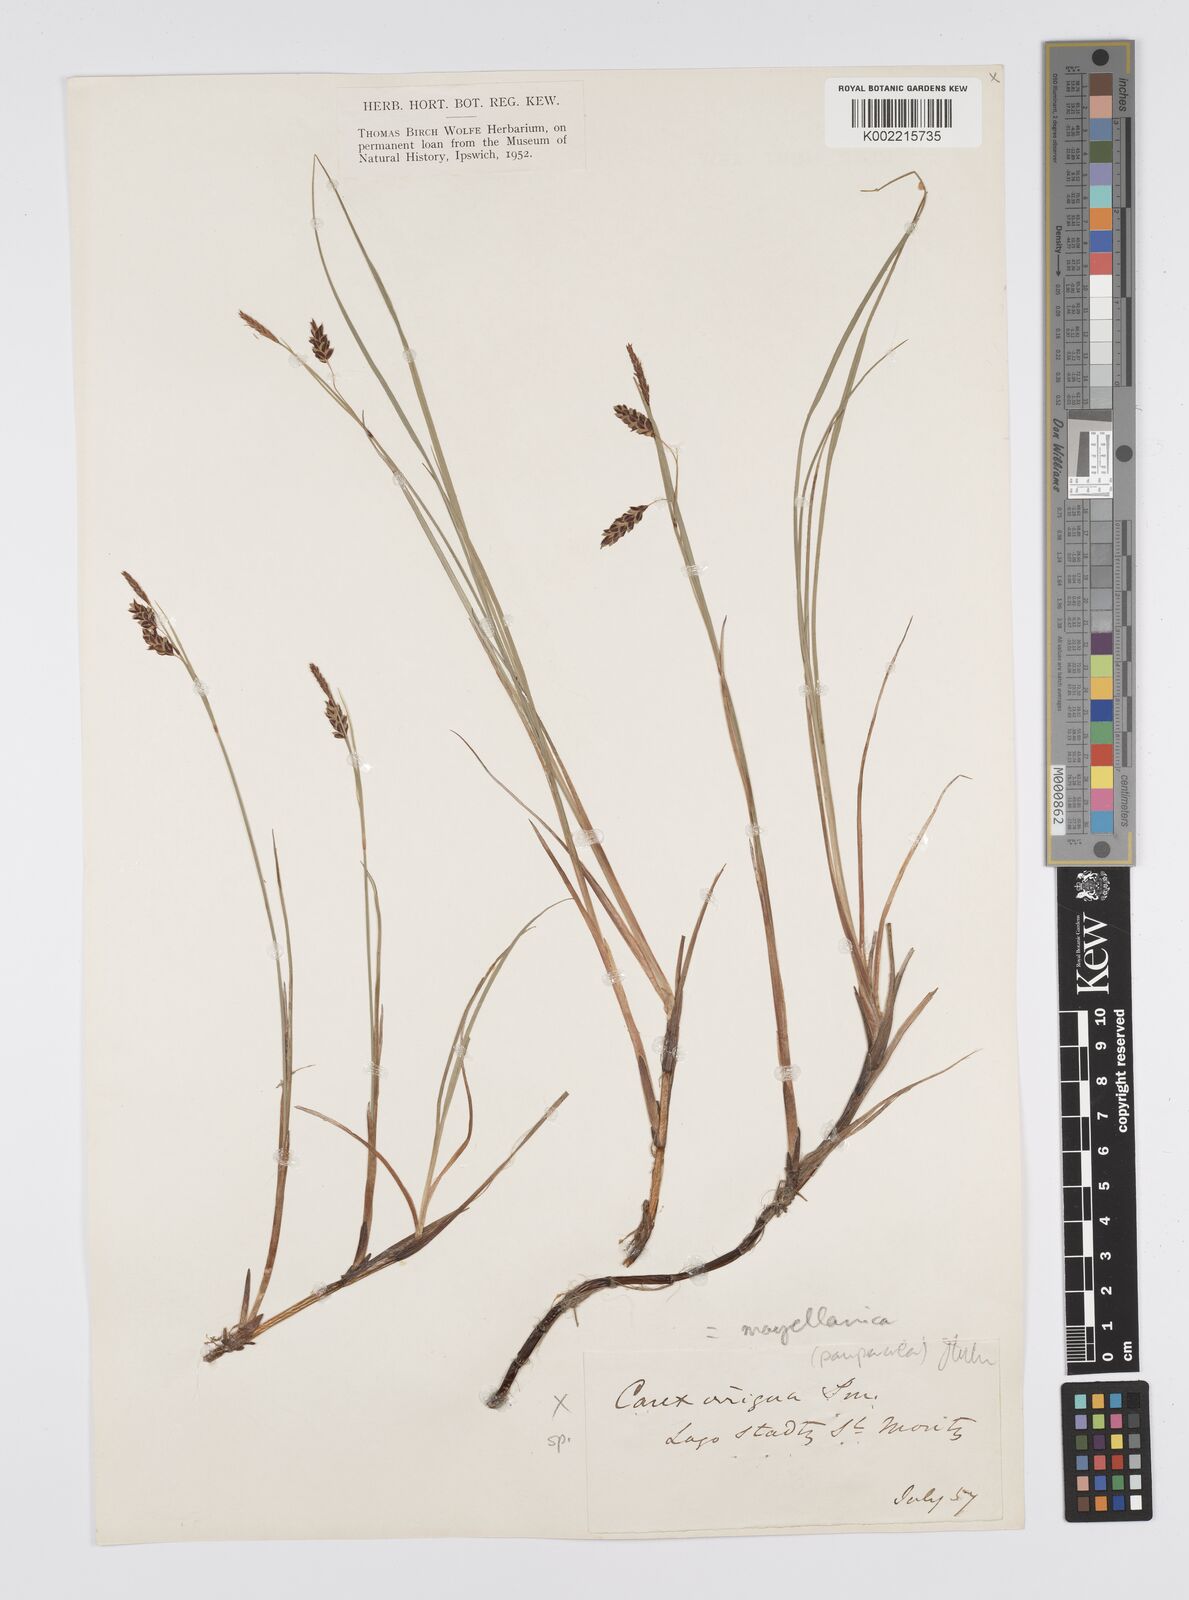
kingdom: Plantae
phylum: Tracheophyta
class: Liliopsida
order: Poales
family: Cyperaceae
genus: Carex
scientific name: Carex
